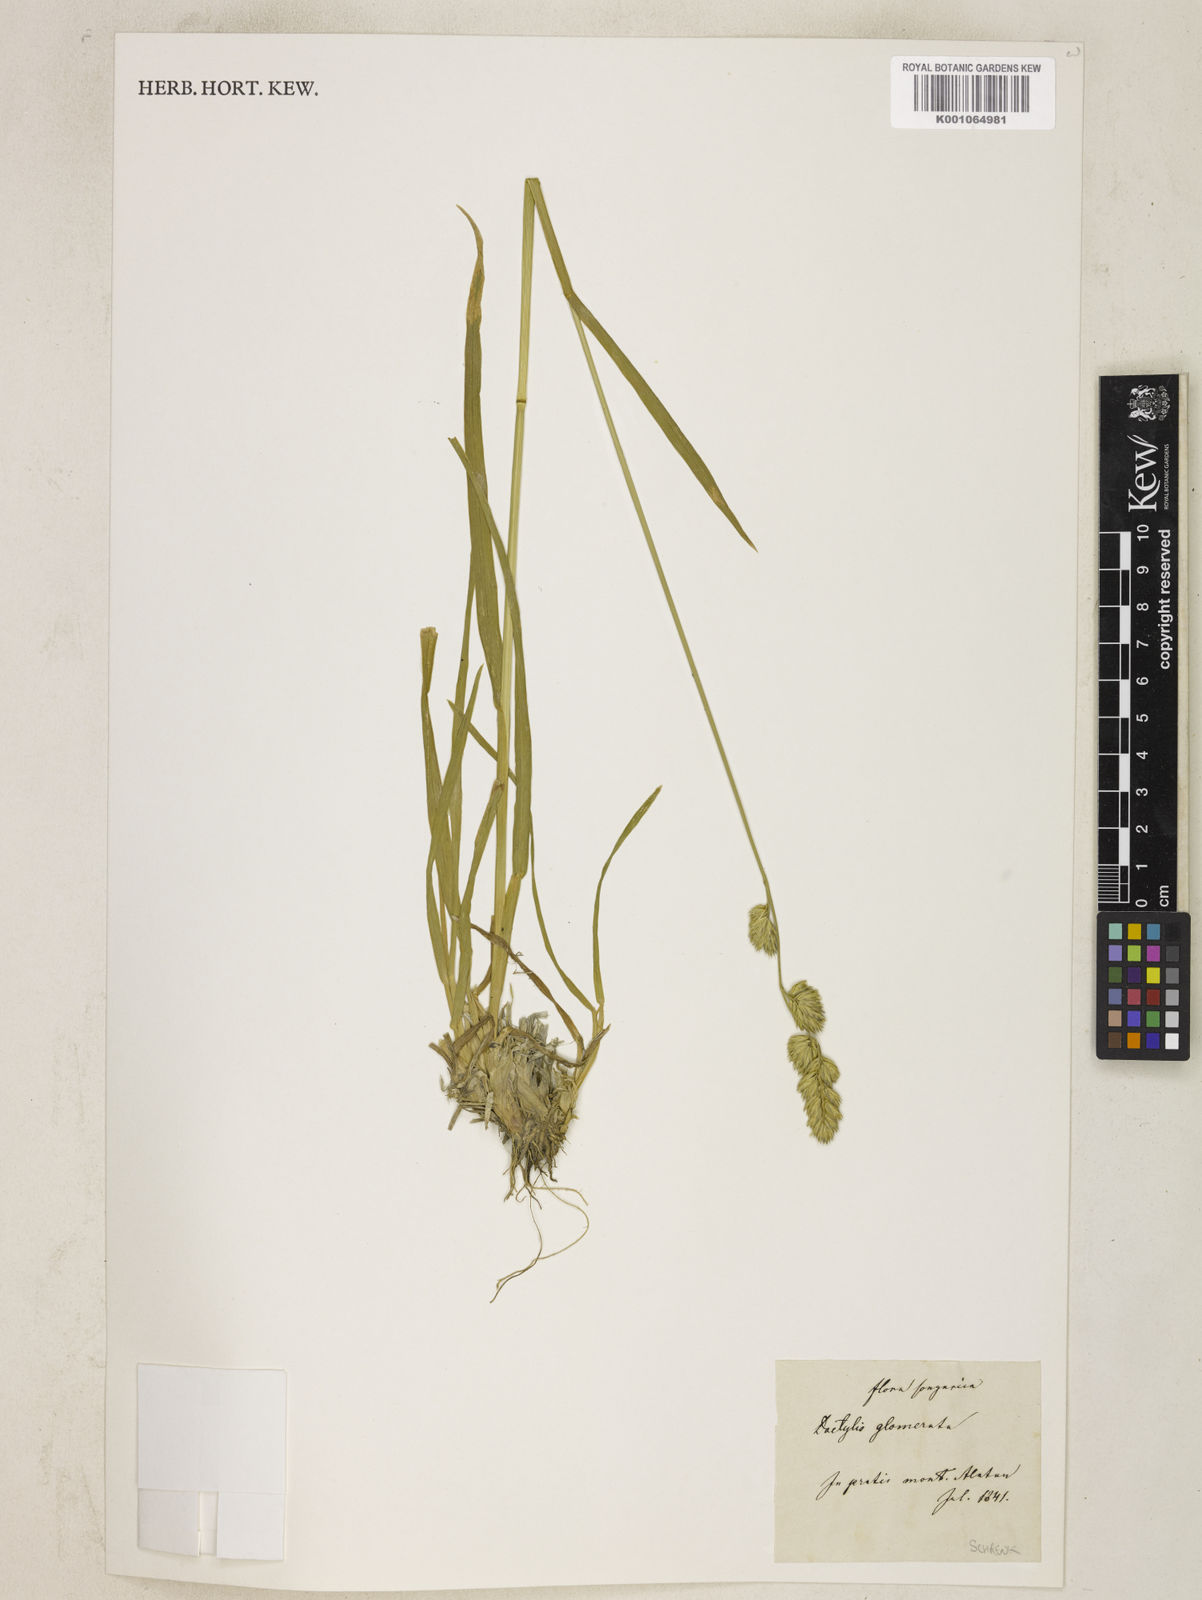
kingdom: Plantae
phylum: Tracheophyta
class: Liliopsida
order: Poales
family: Poaceae
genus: Dactylis
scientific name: Dactylis glomerata
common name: Orchardgrass
